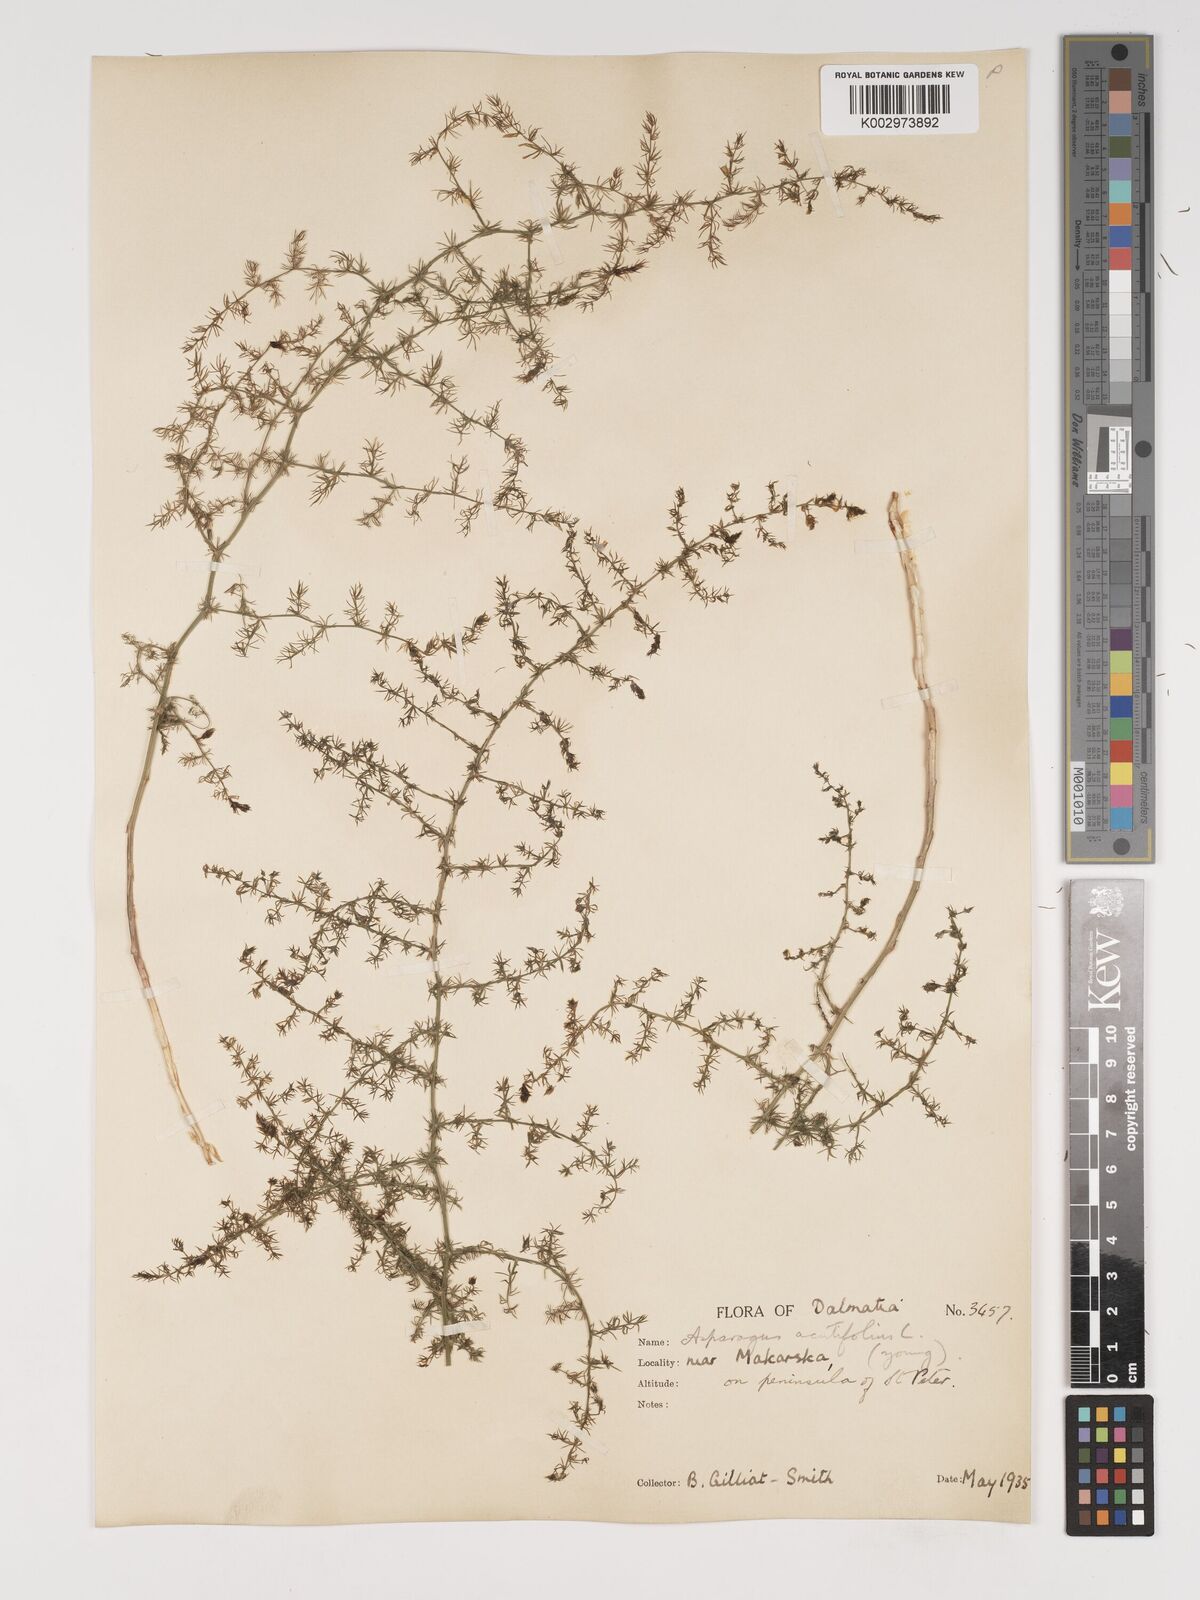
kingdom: Plantae
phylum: Tracheophyta
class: Liliopsida
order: Asparagales
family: Asparagaceae
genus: Asparagus
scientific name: Asparagus acutifolius
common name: Wild asparagus
